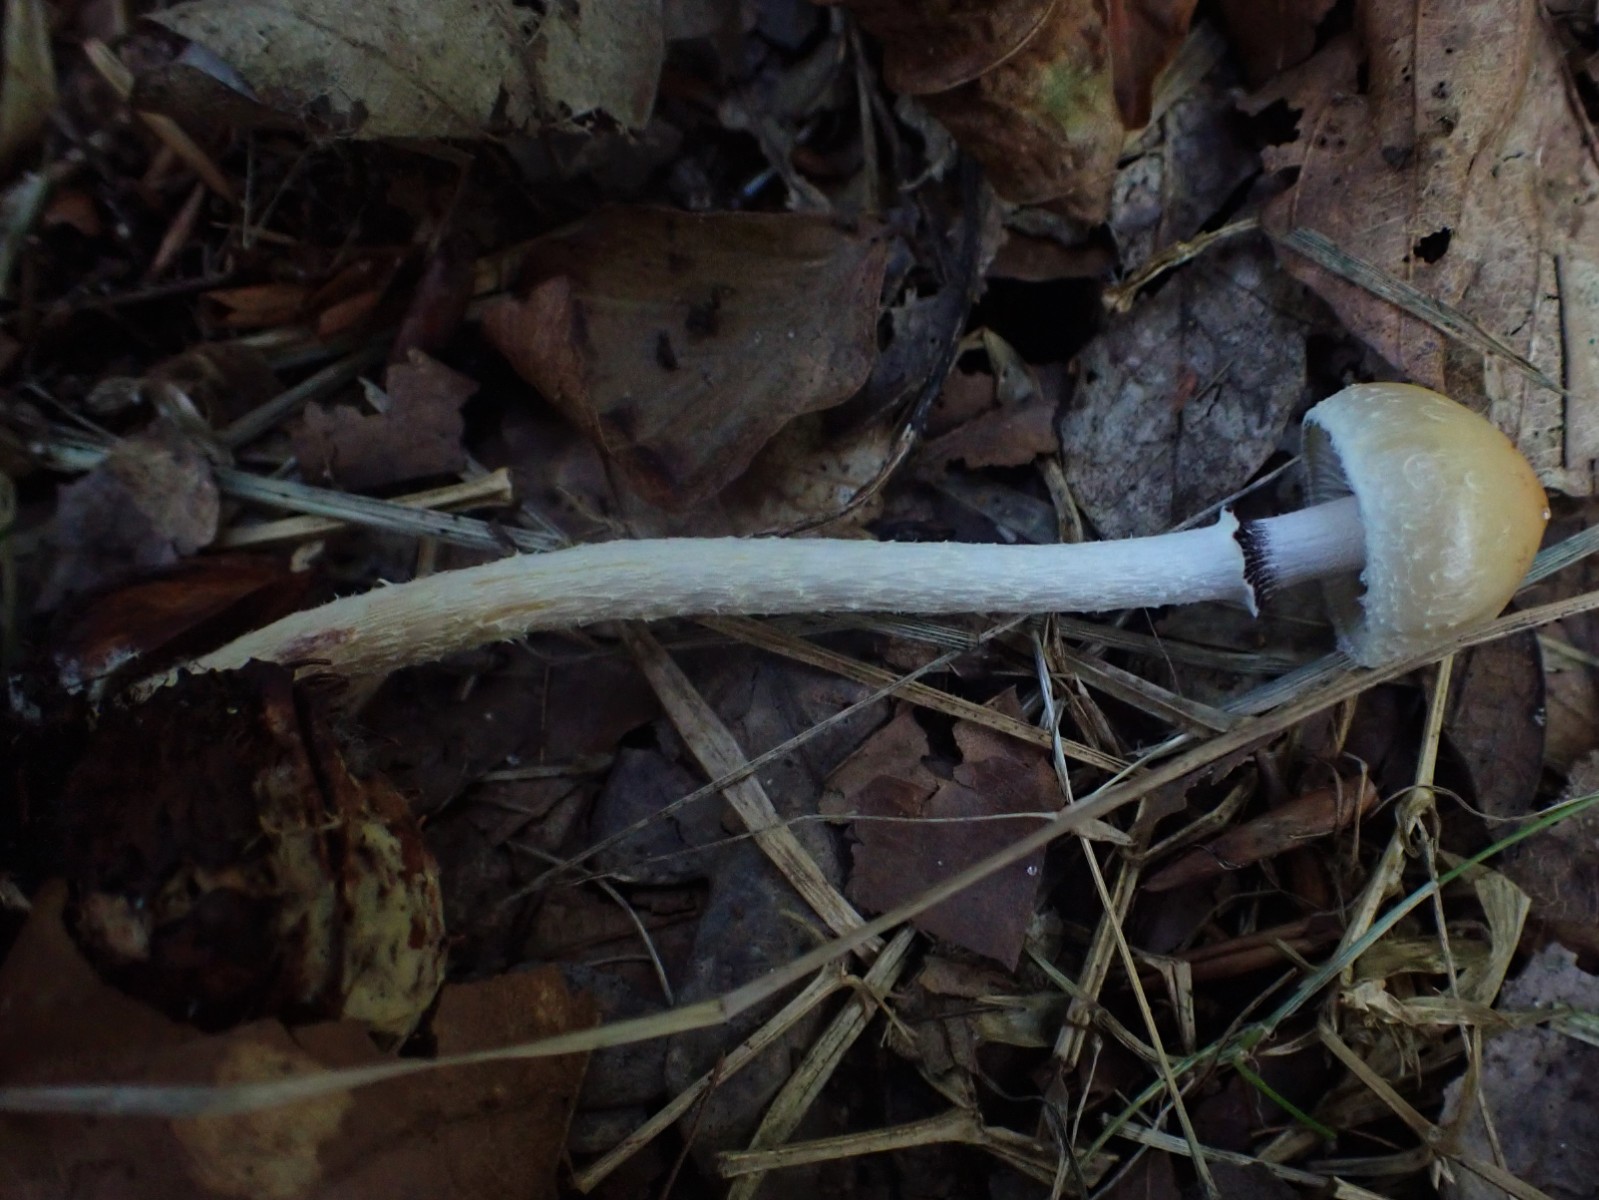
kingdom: Fungi
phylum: Basidiomycota
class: Agaricomycetes
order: Agaricales
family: Strophariaceae
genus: Leratiomyces
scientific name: Leratiomyces squamosus
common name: skællet bredblad
